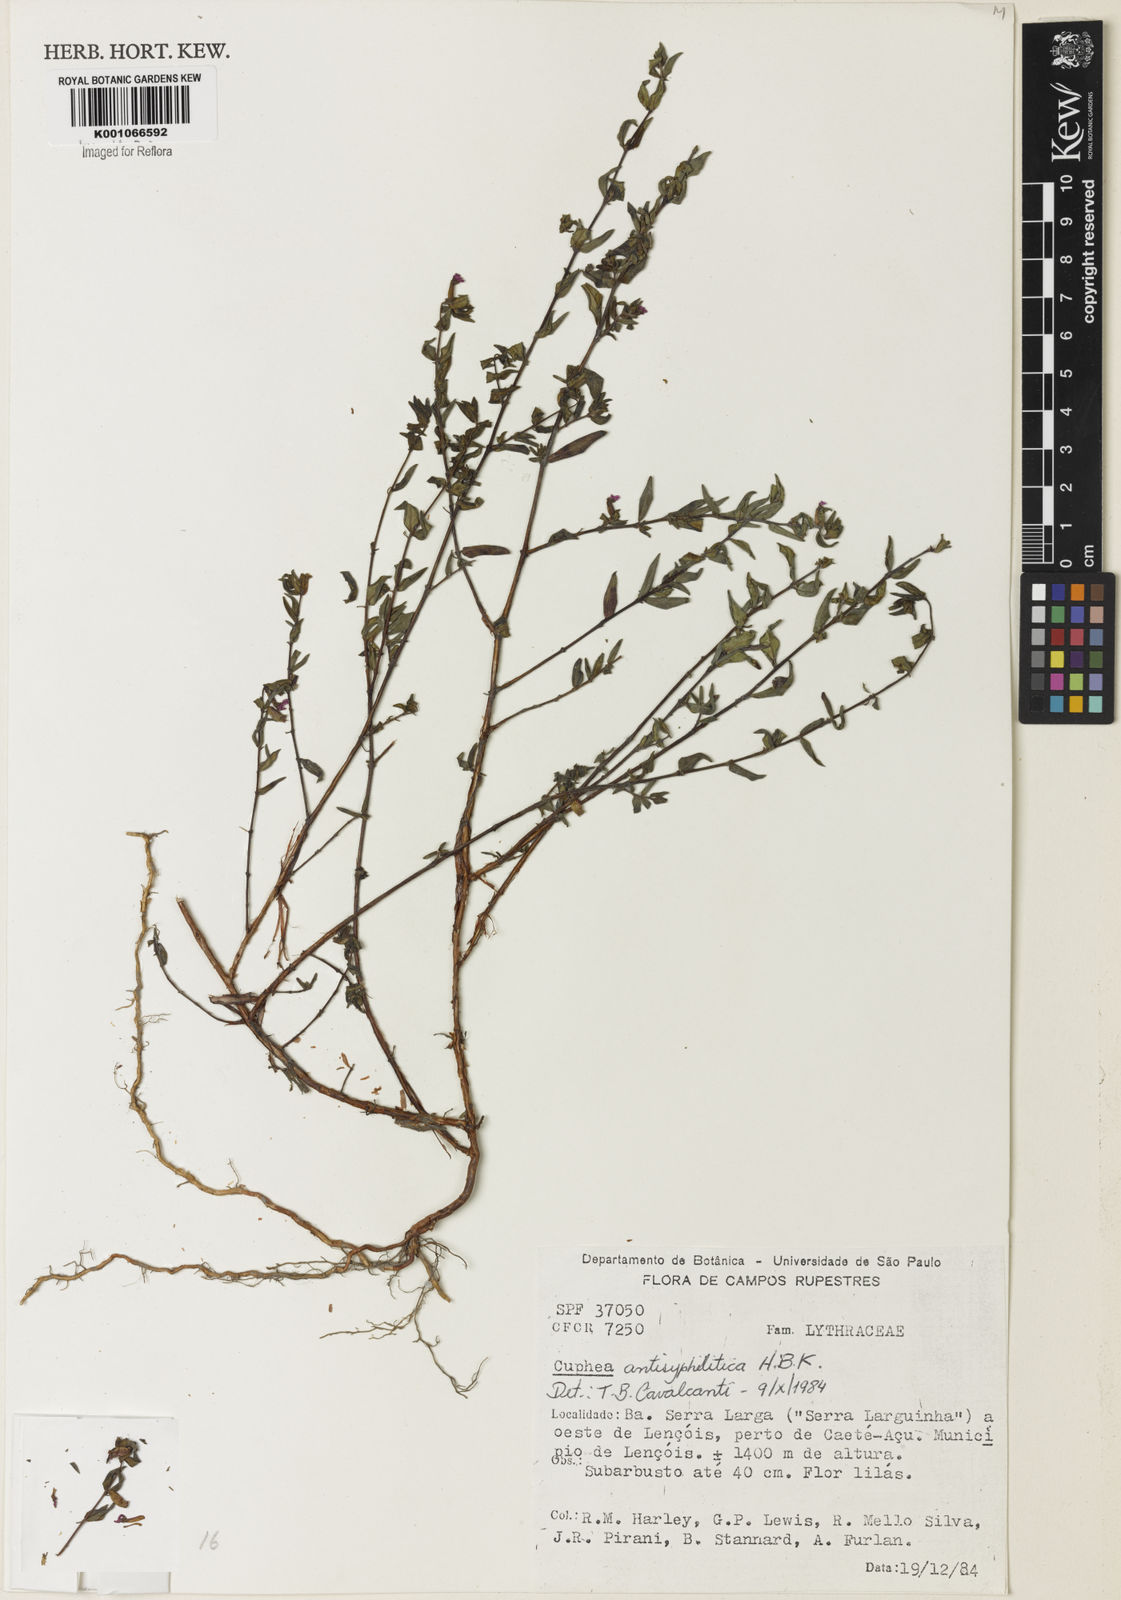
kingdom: Plantae
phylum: Tracheophyta
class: Magnoliopsida
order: Myrtales
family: Lythraceae
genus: Cuphea
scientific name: Cuphea antisyphilitica
